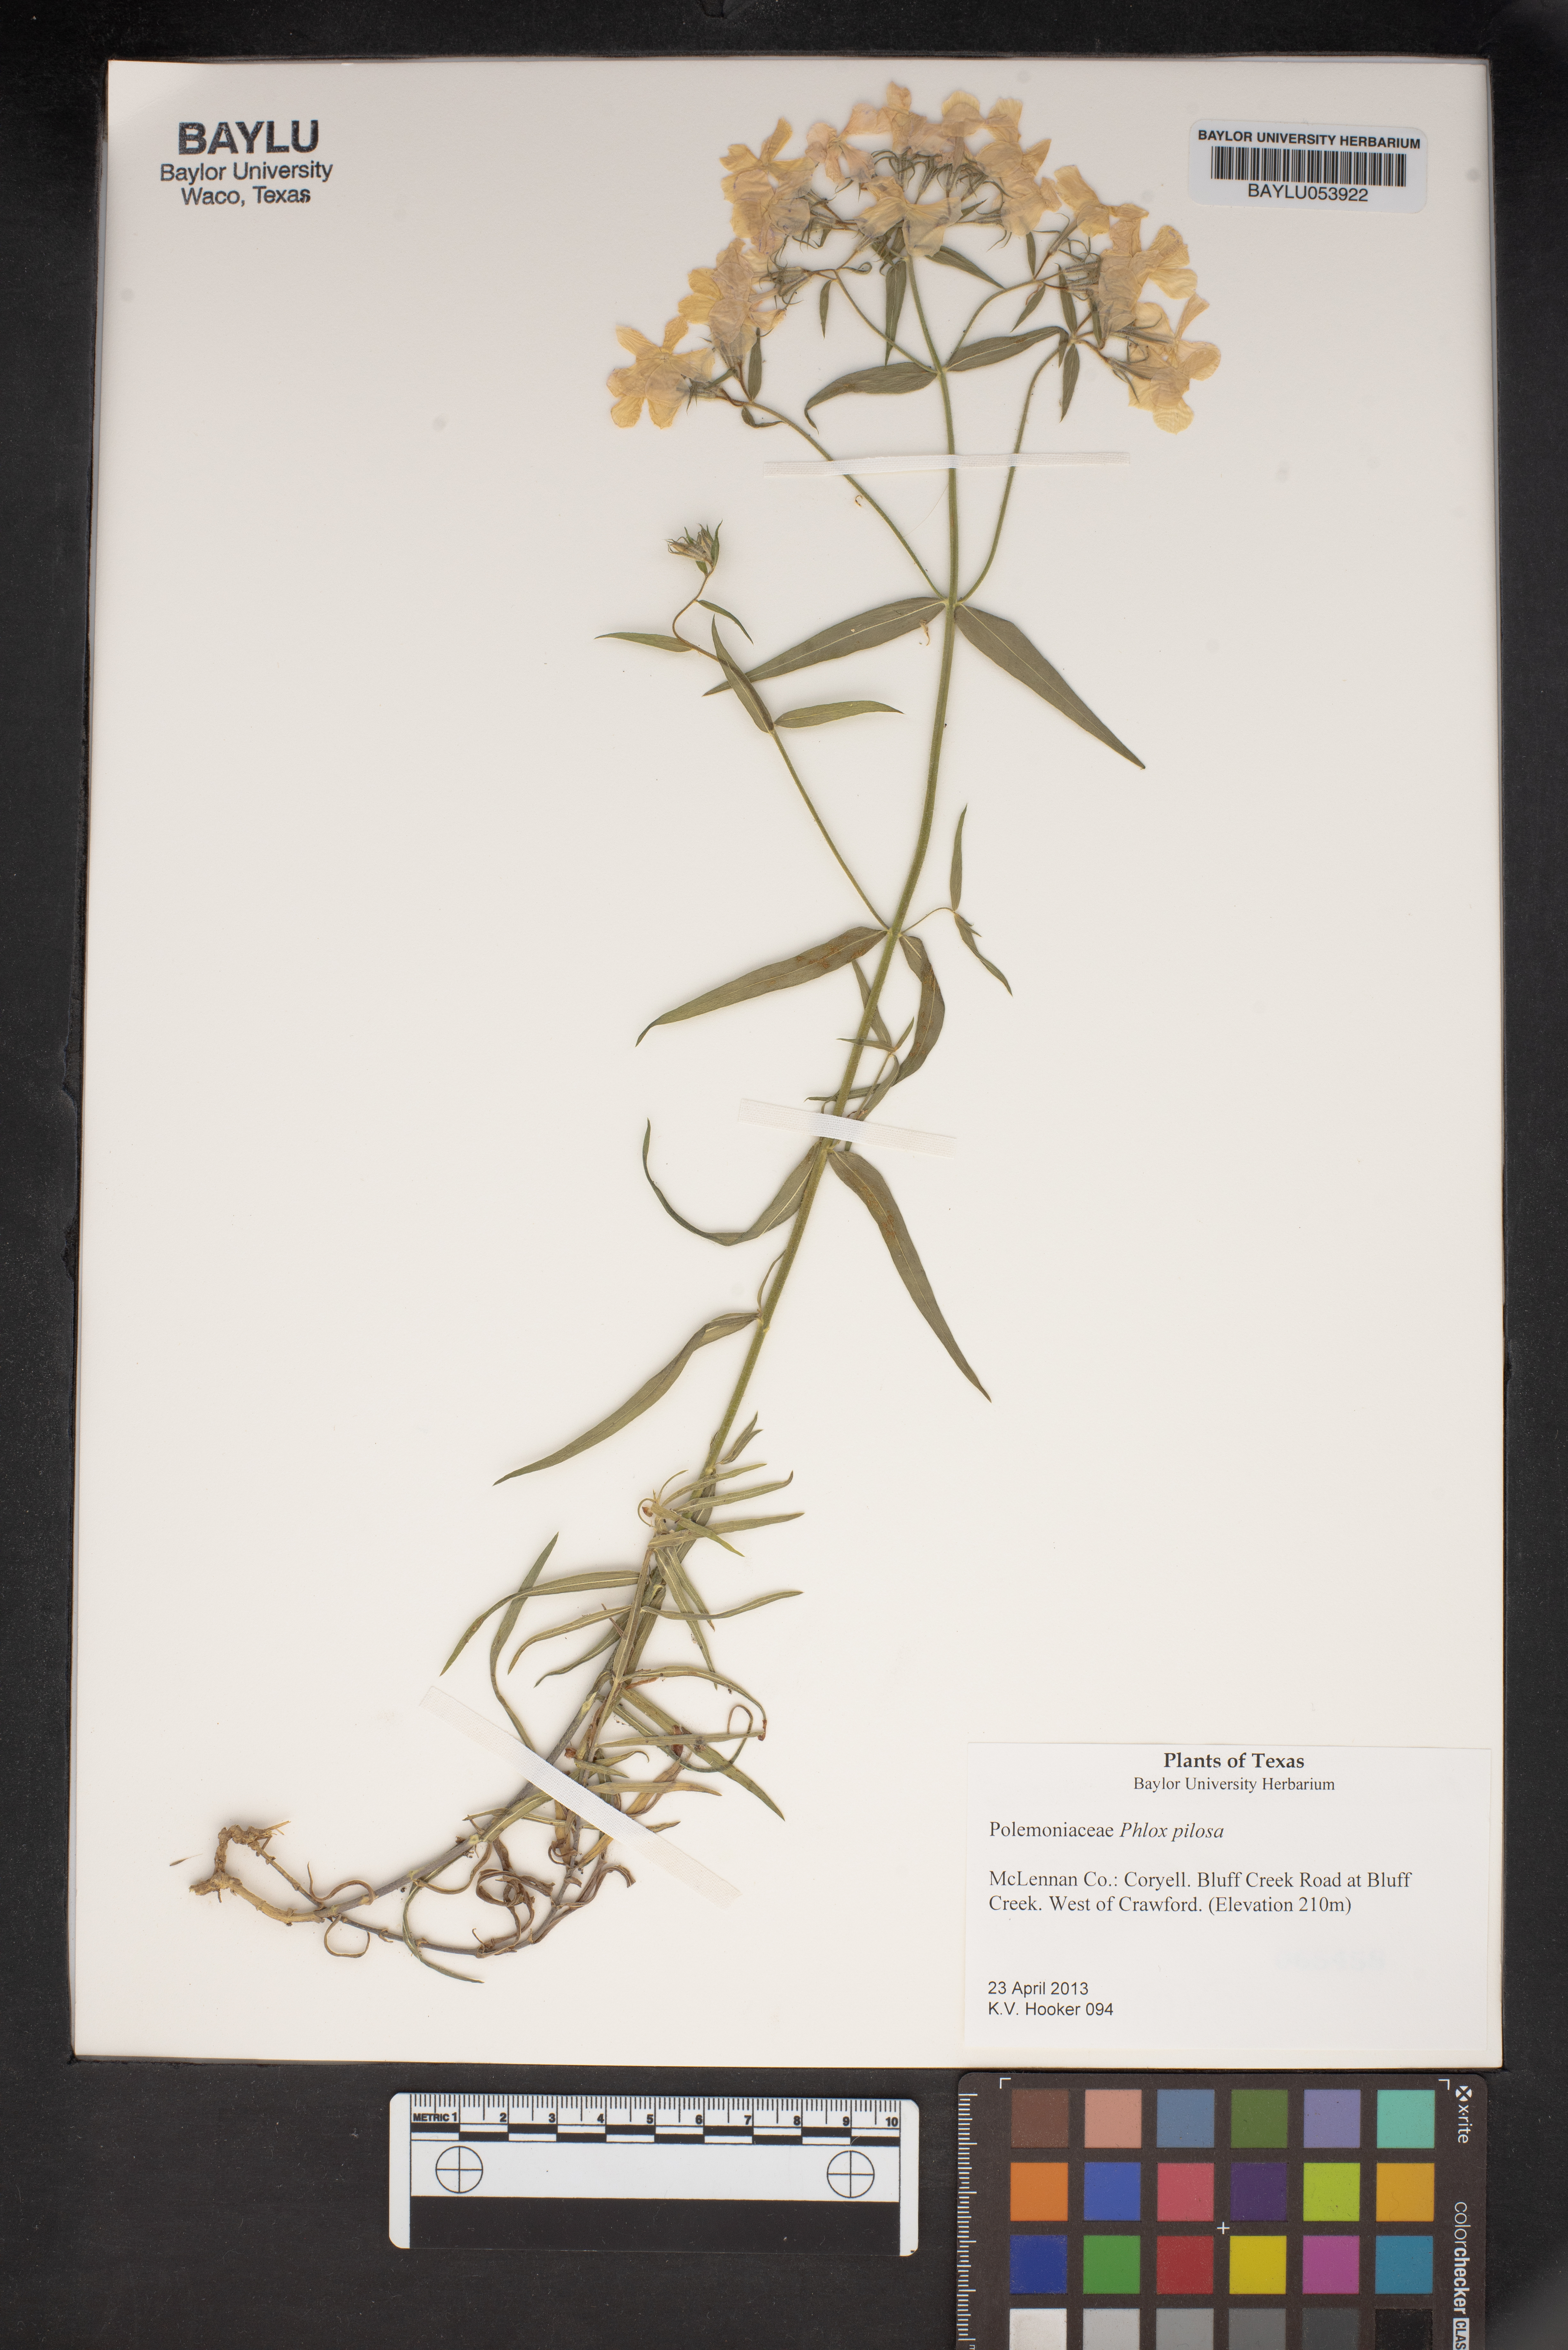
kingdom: Plantae
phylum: Tracheophyta
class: Magnoliopsida
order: Ericales
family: Polemoniaceae
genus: Phlox
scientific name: Phlox pilosa
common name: Prairie phlox
